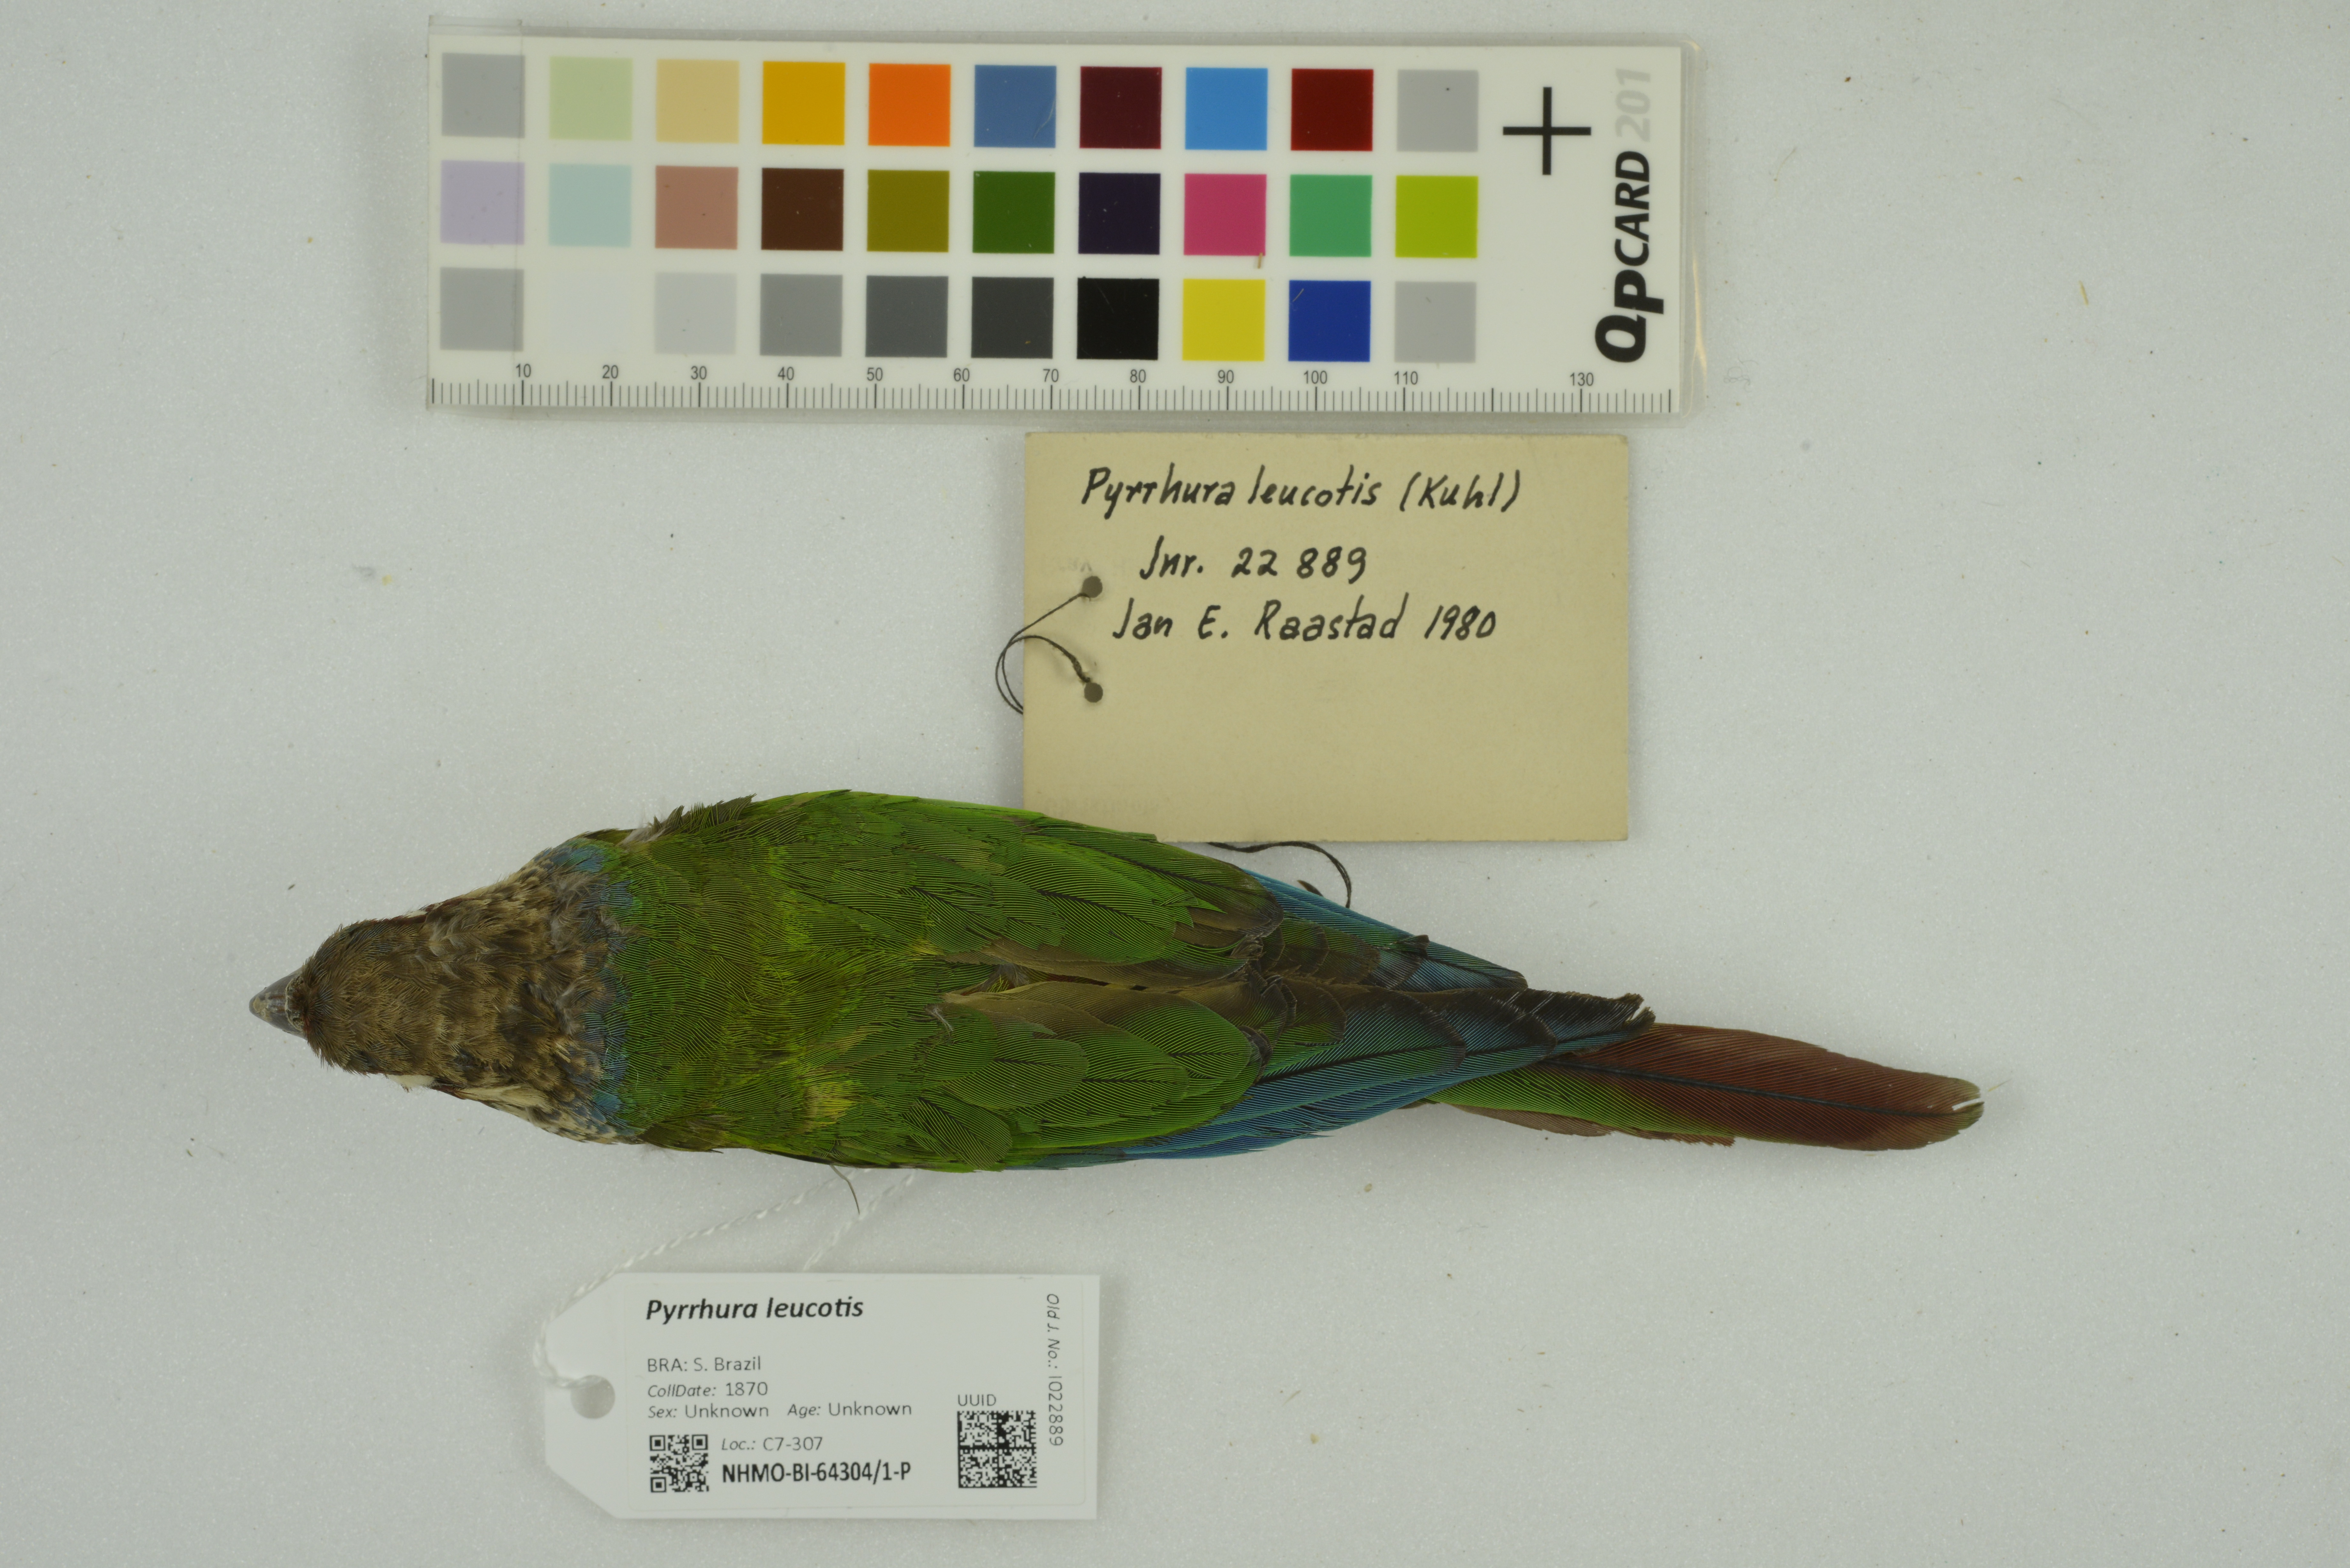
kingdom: Animalia
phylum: Chordata
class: Aves
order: Psittaciformes
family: Psittacidae
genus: Pyrrhura
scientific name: Pyrrhura leucotis
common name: White-eared parakeet
